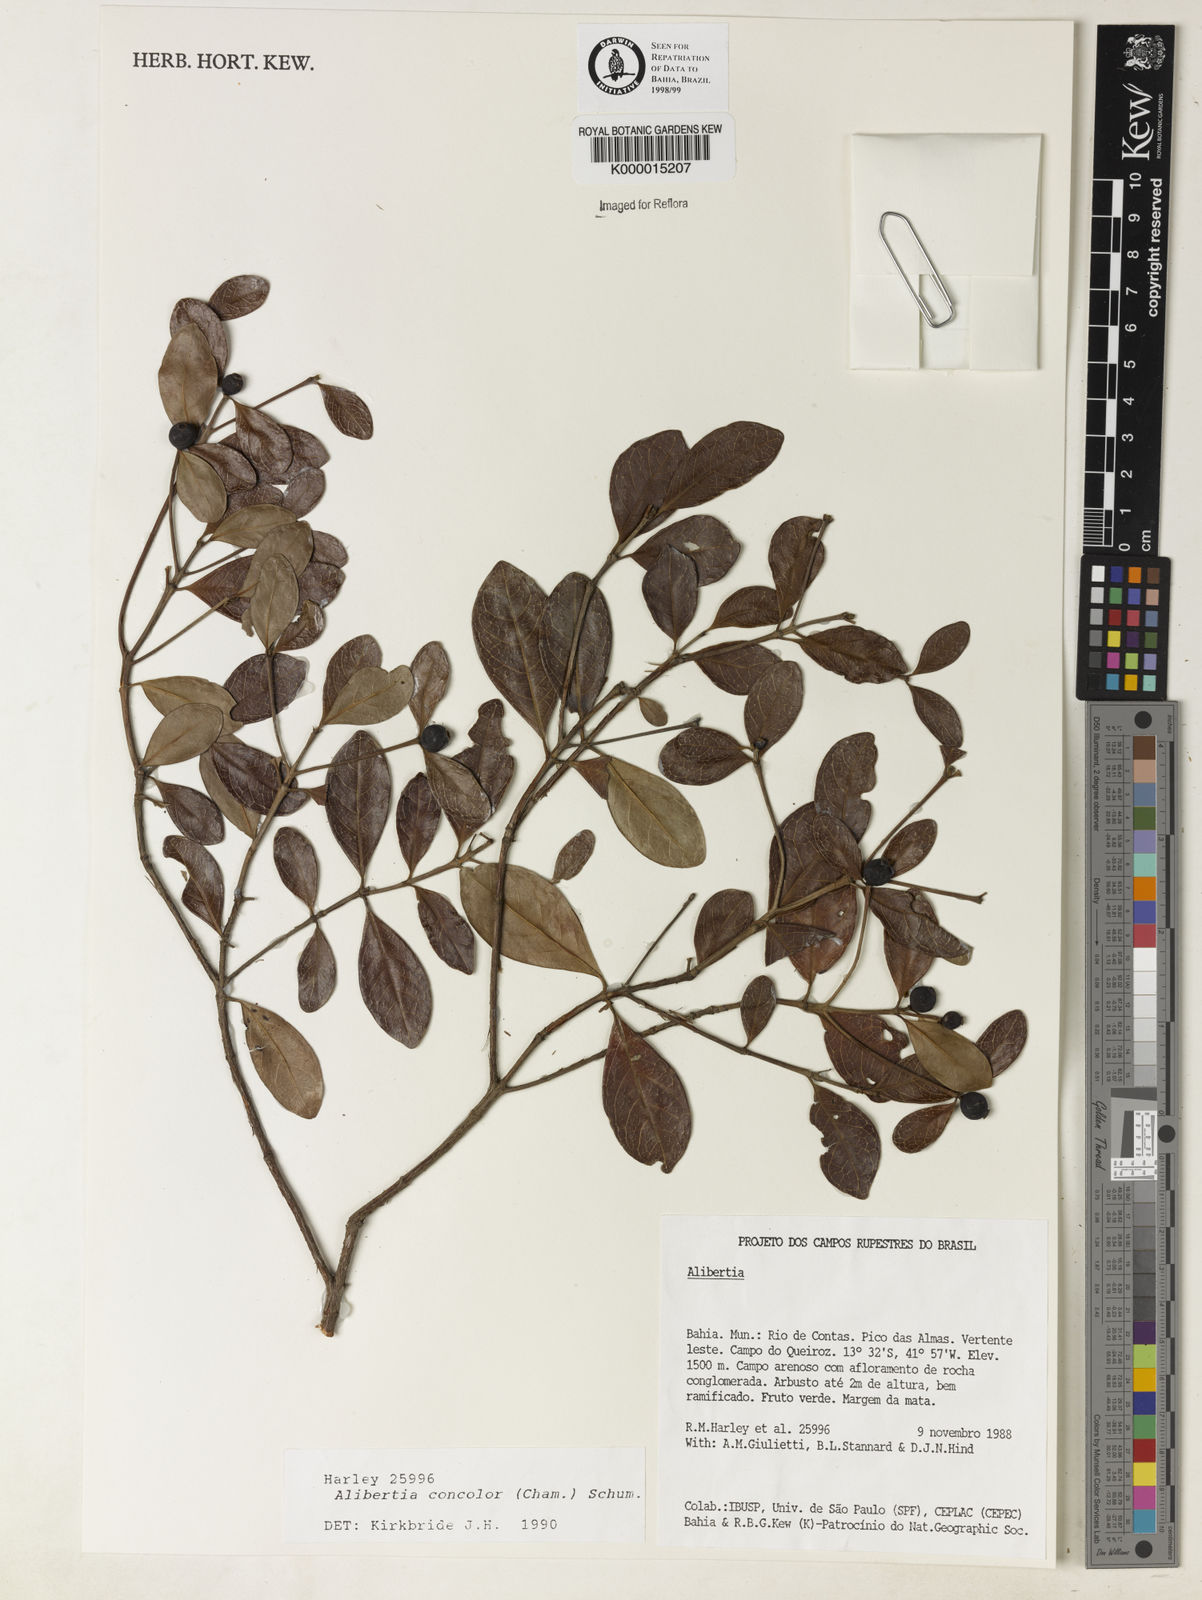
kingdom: Plantae
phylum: Tracheophyta
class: Magnoliopsida
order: Gentianales
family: Rubiaceae
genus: Cordiera
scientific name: Cordiera concolor
